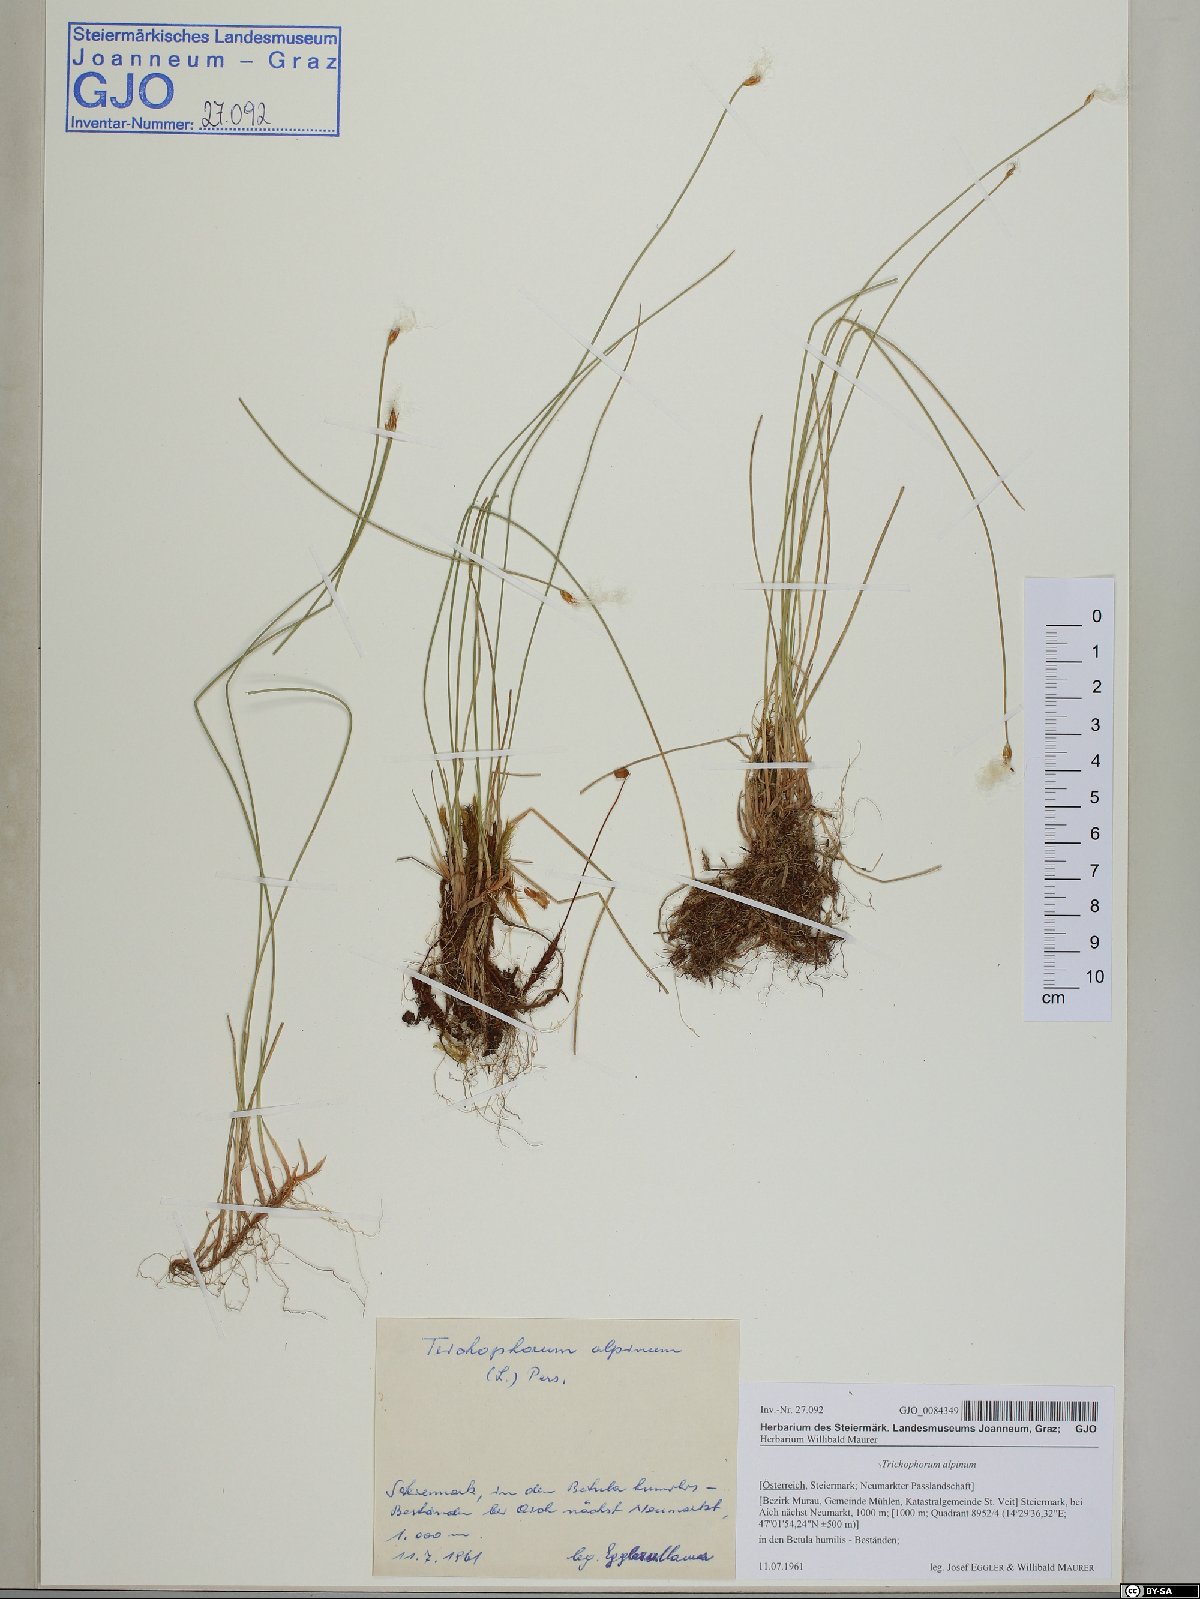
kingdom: Plantae
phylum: Tracheophyta
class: Liliopsida
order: Poales
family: Cyperaceae
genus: Trichophorum
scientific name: Trichophorum alpinum
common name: Alpine bulrush
